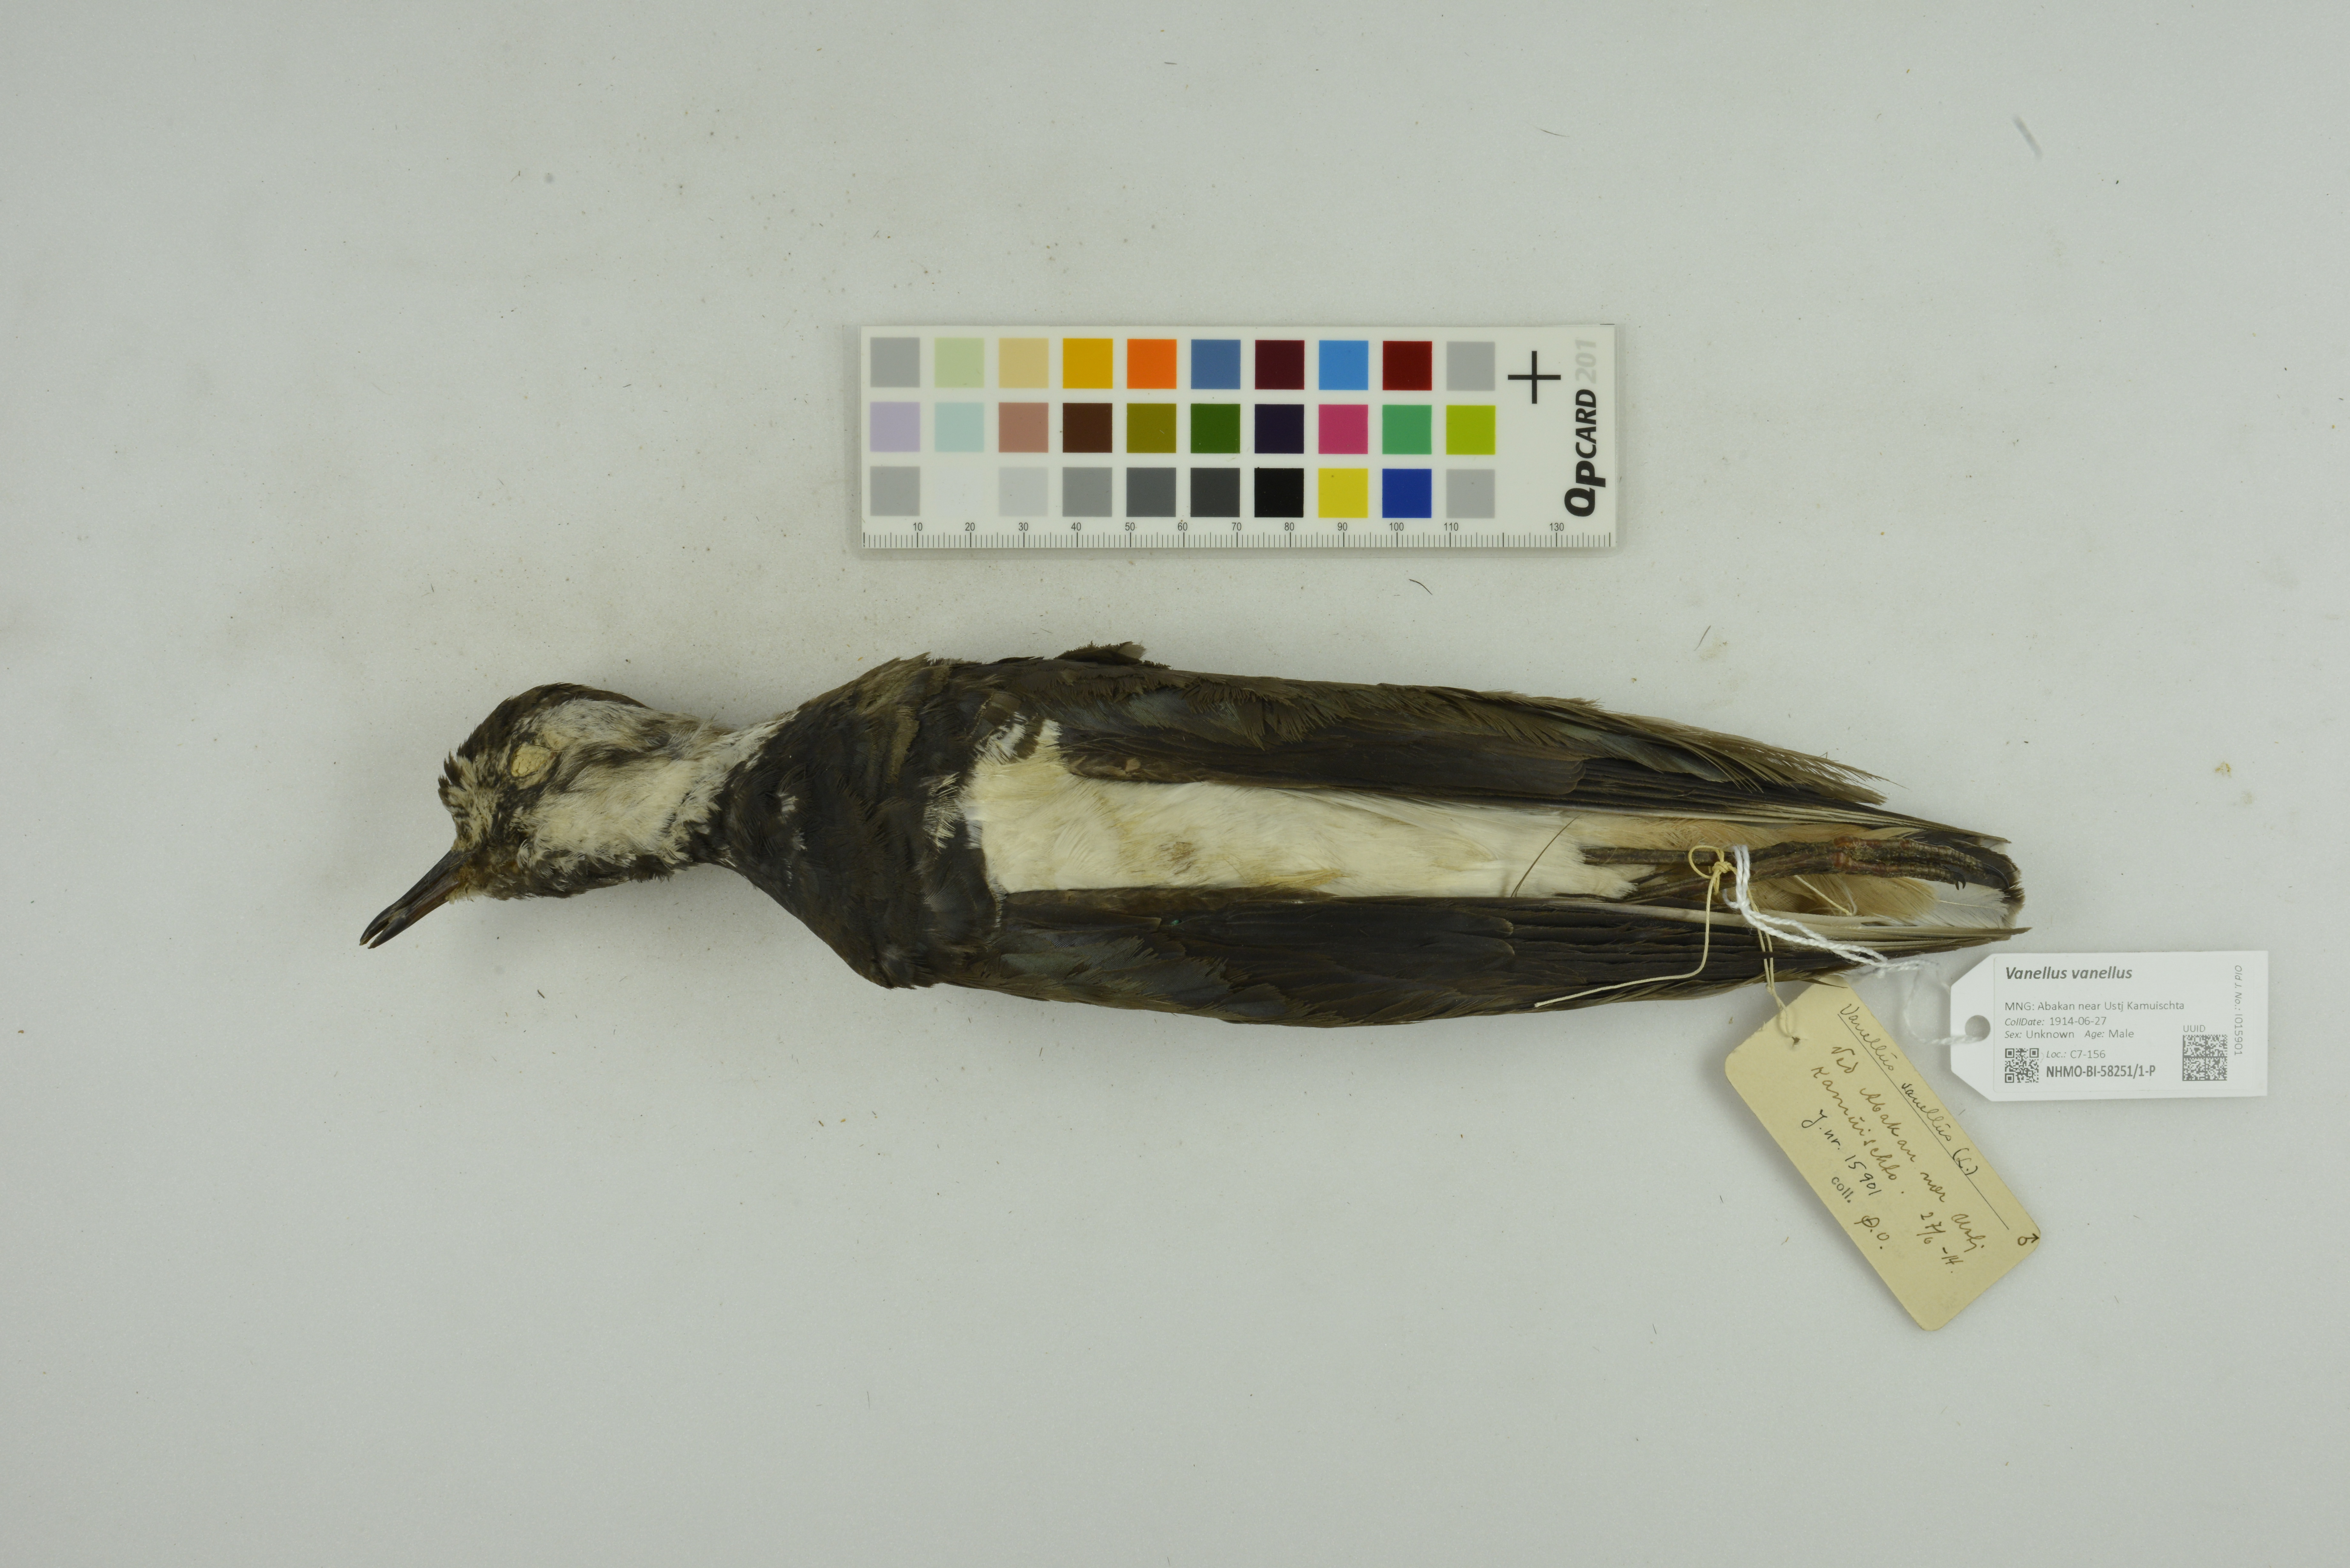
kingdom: Animalia
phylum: Chordata
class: Aves
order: Charadriiformes
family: Charadriidae
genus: Vanellus
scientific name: Vanellus vanellus
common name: Northern lapwing
